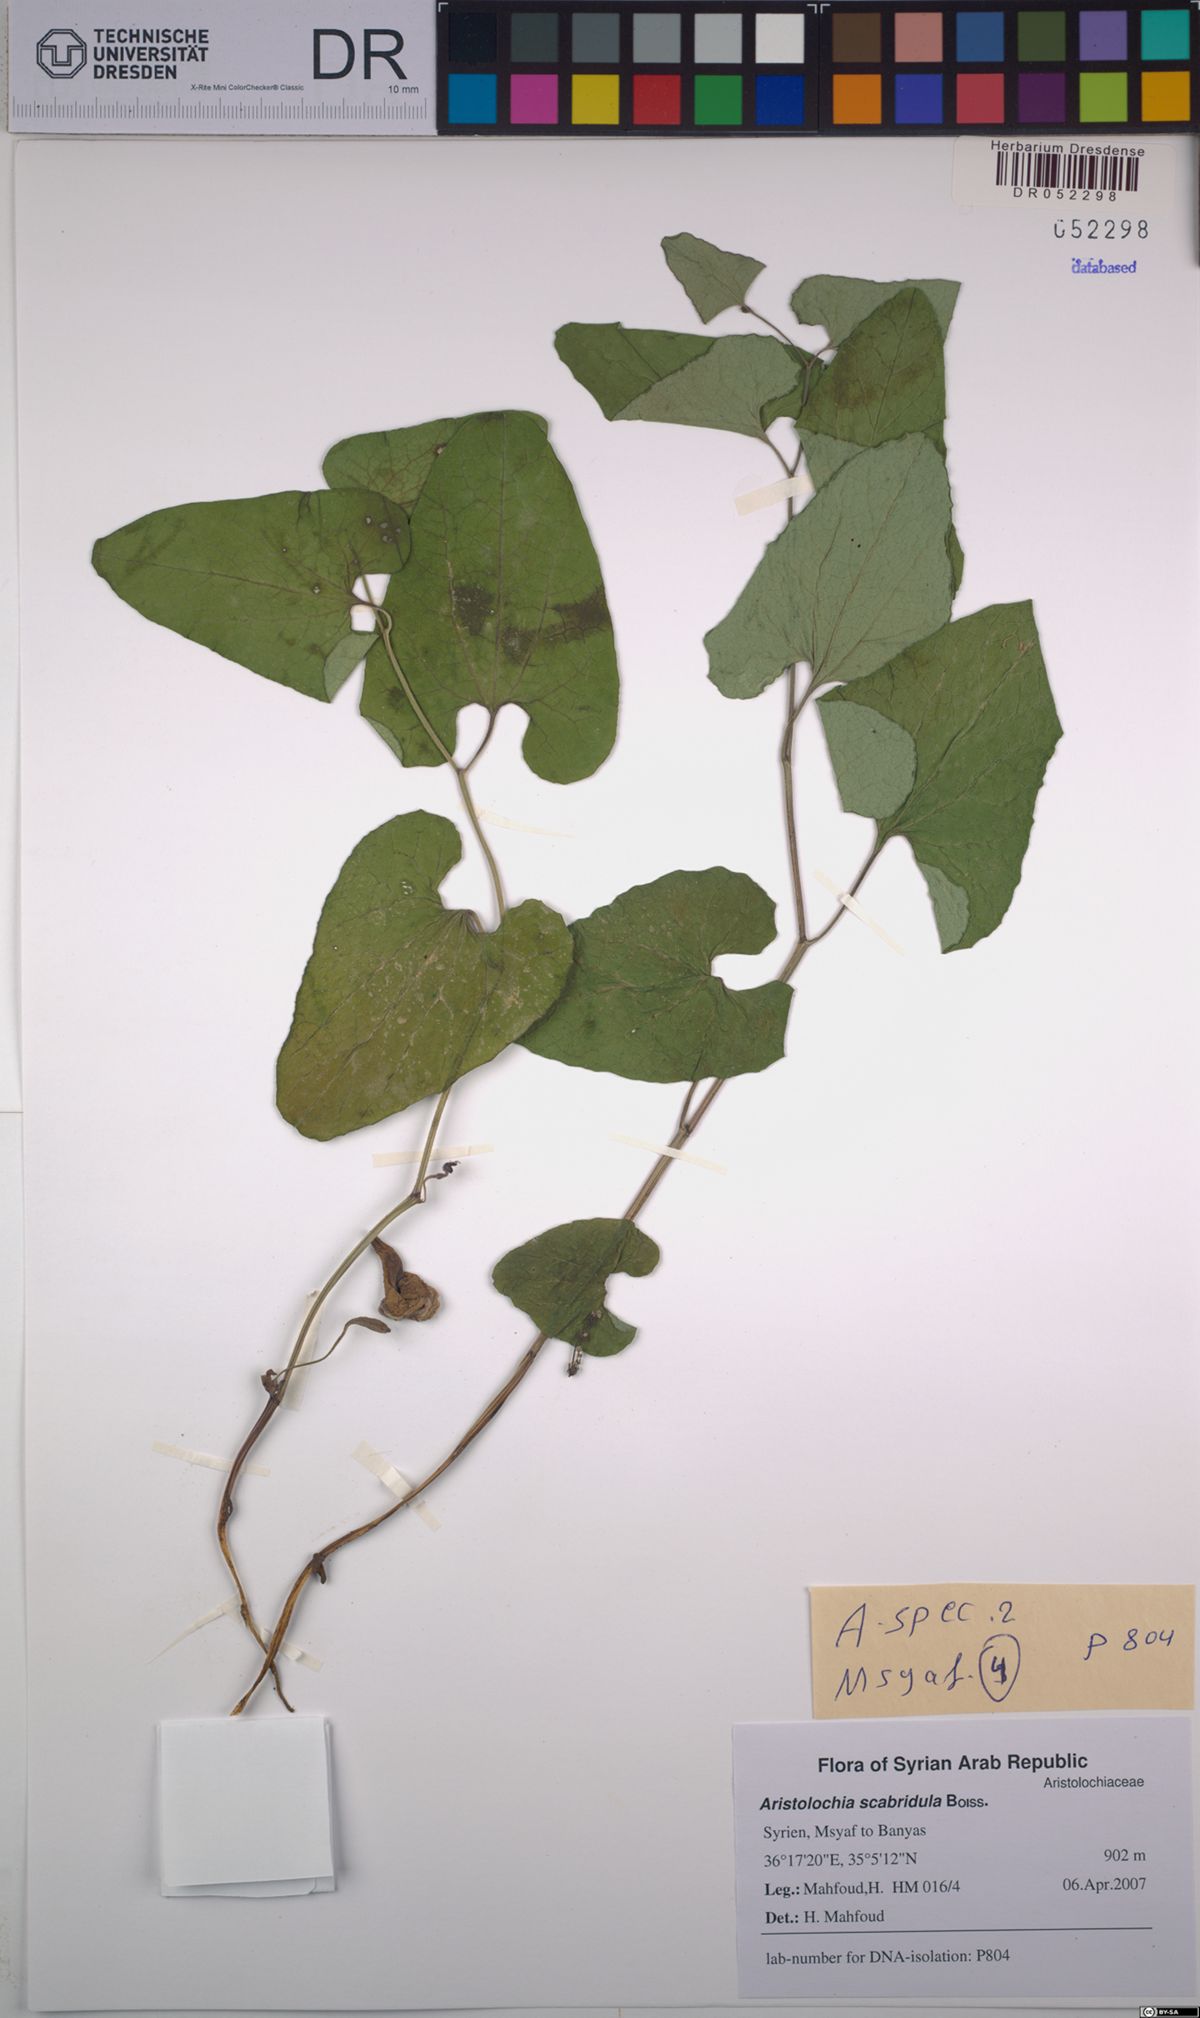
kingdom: Plantae
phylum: Tracheophyta
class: Magnoliopsida
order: Piperales
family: Aristolochiaceae
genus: Aristolochia
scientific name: Aristolochia paecilantha
